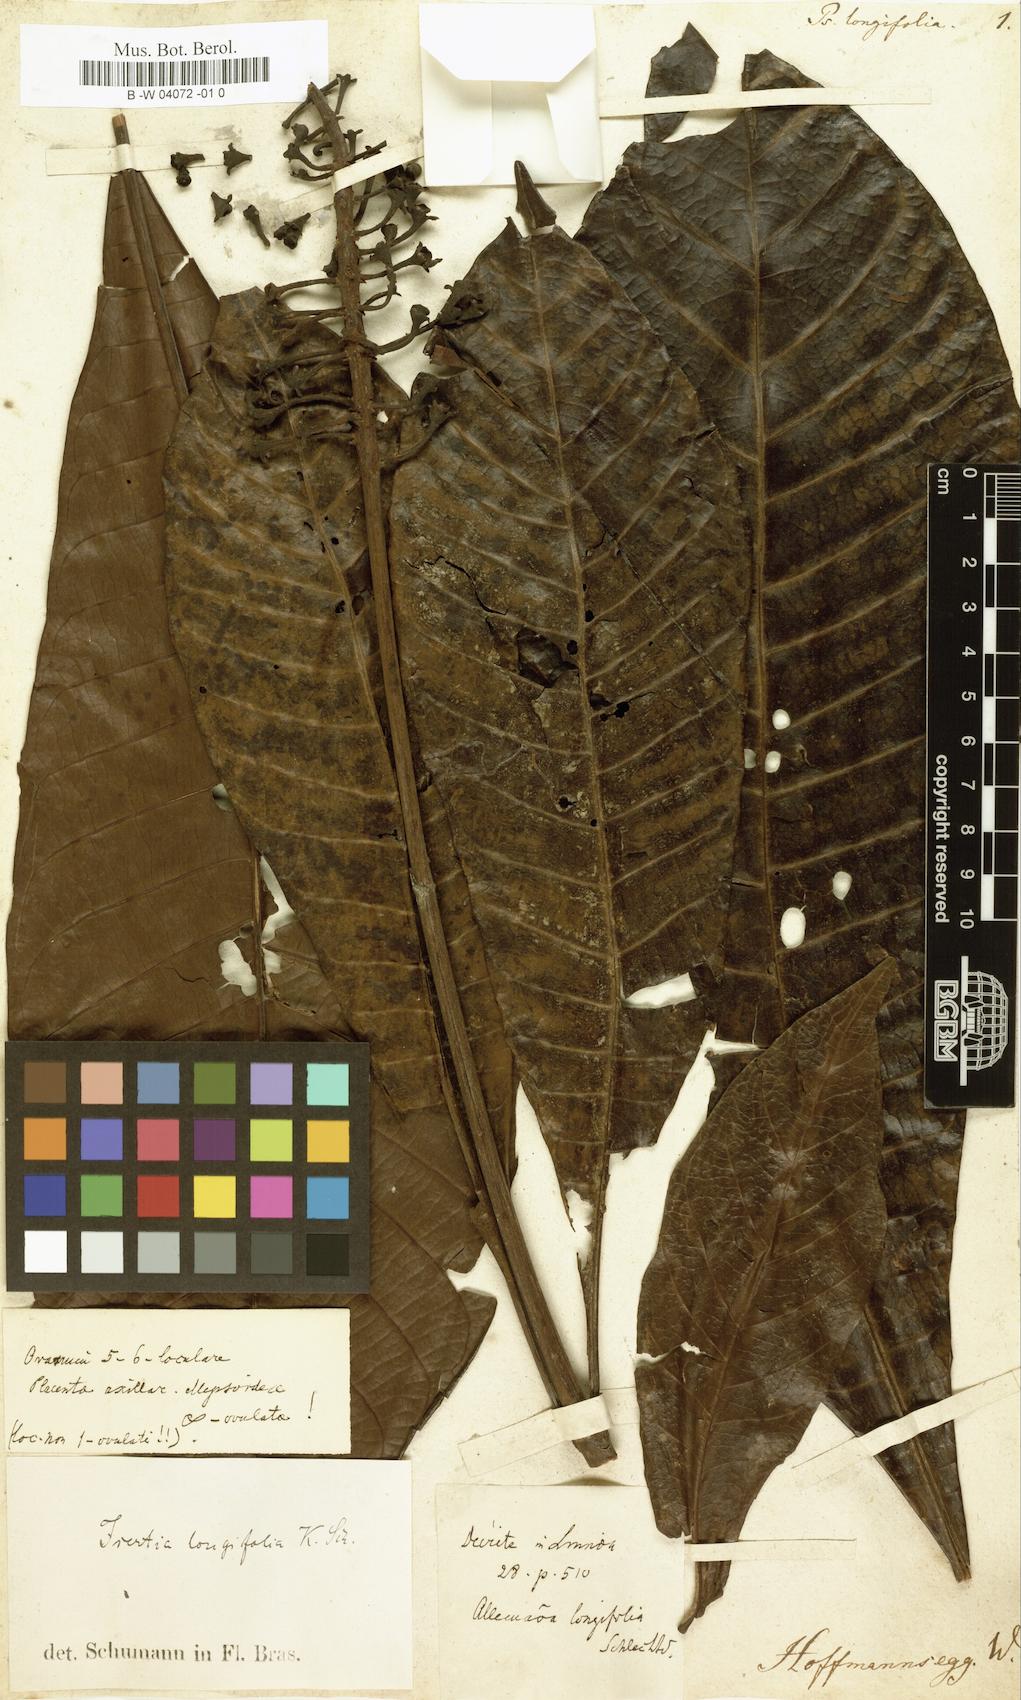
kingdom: Plantae
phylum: Tracheophyta
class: Magnoliopsida
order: Gentianales
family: Rubiaceae
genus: Psychotria
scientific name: Psychotria longifolia
